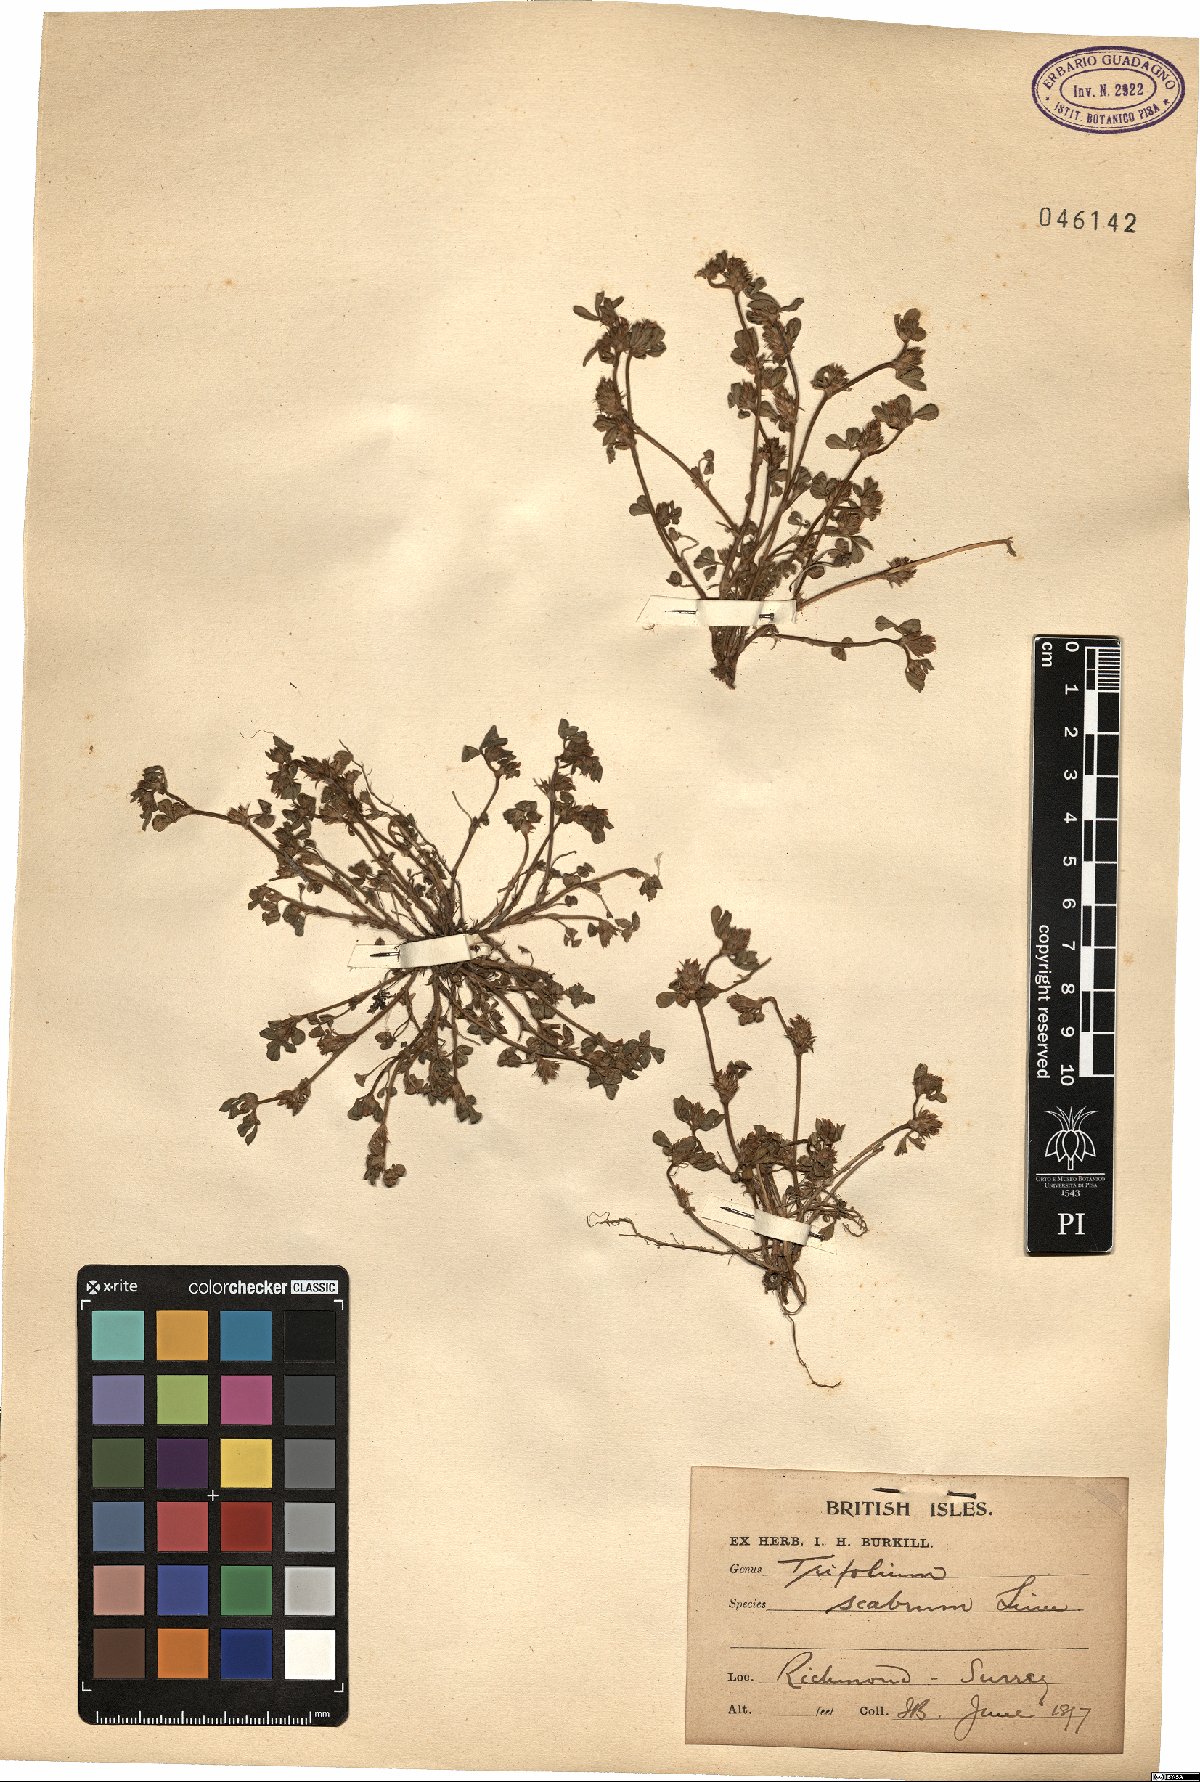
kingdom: Plantae
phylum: Tracheophyta
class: Magnoliopsida
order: Fabales
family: Fabaceae
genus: Trifolium
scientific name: Trifolium scabrum
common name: Rough clover
